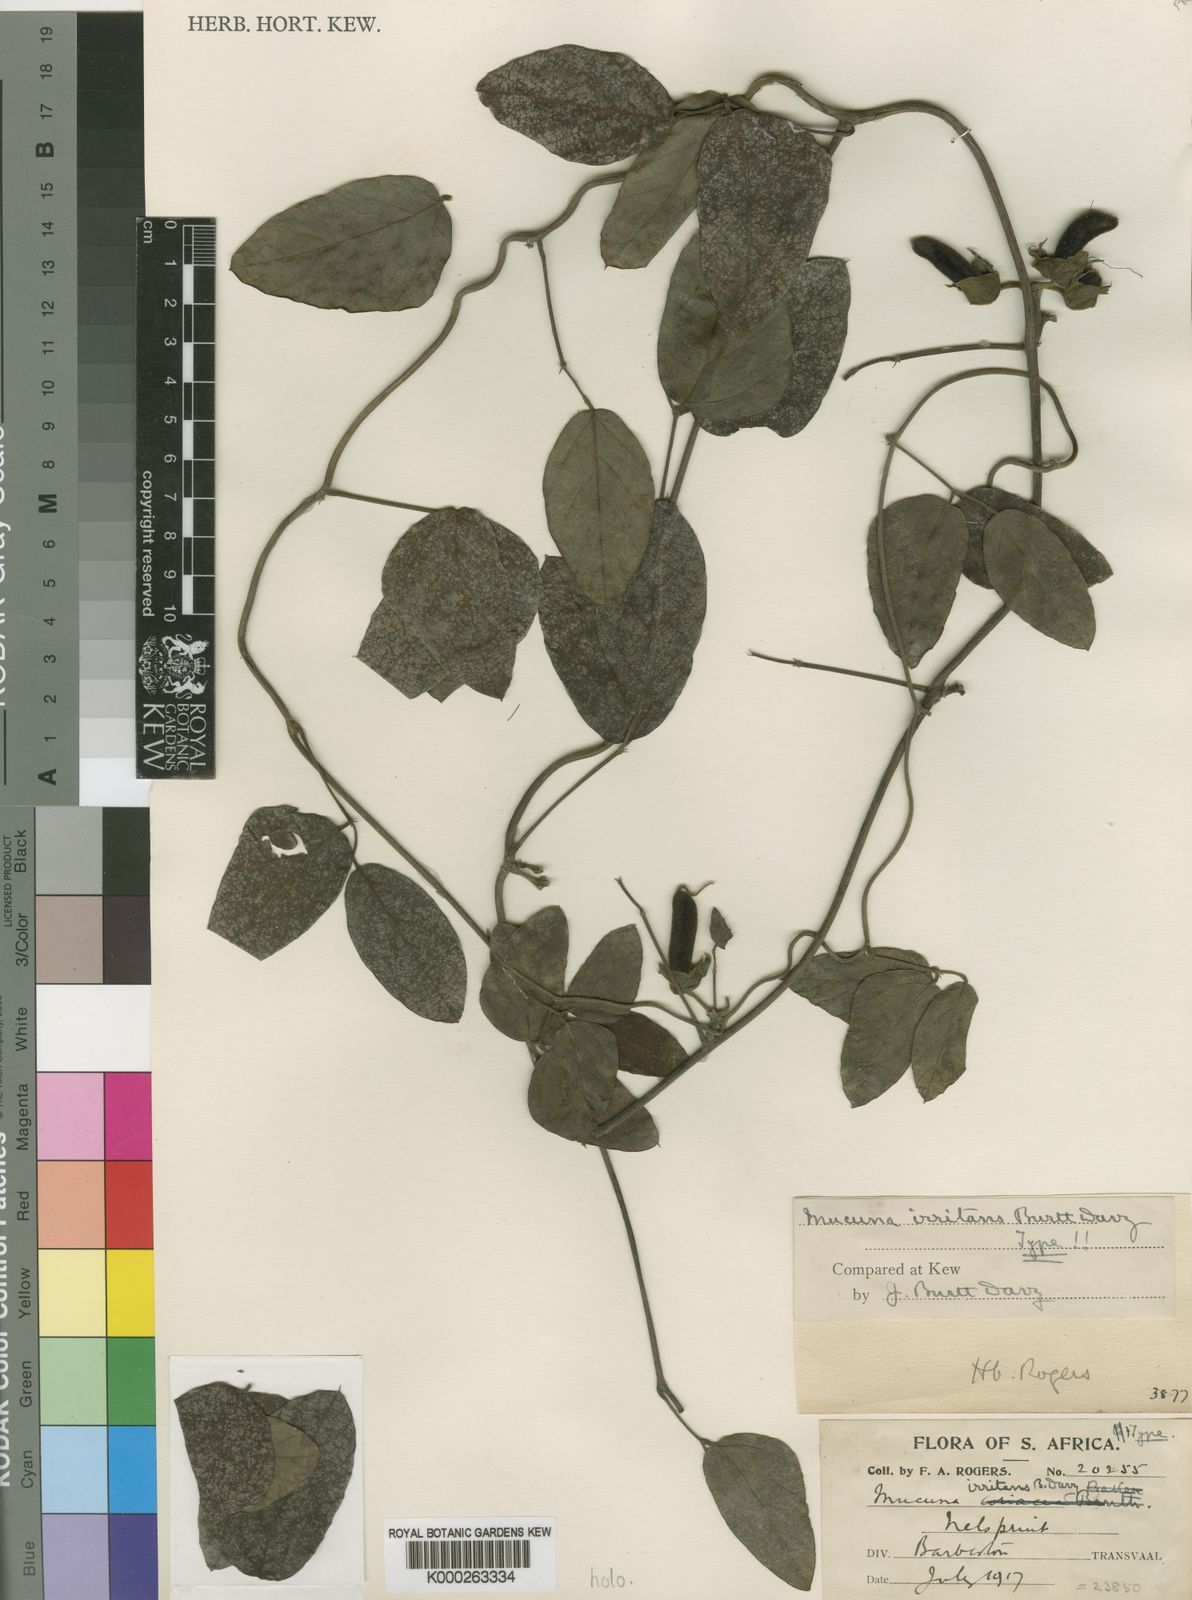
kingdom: Plantae
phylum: Tracheophyta
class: Magnoliopsida
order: Fabales
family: Fabaceae
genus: Mucuna
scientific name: Mucuna coriacea
